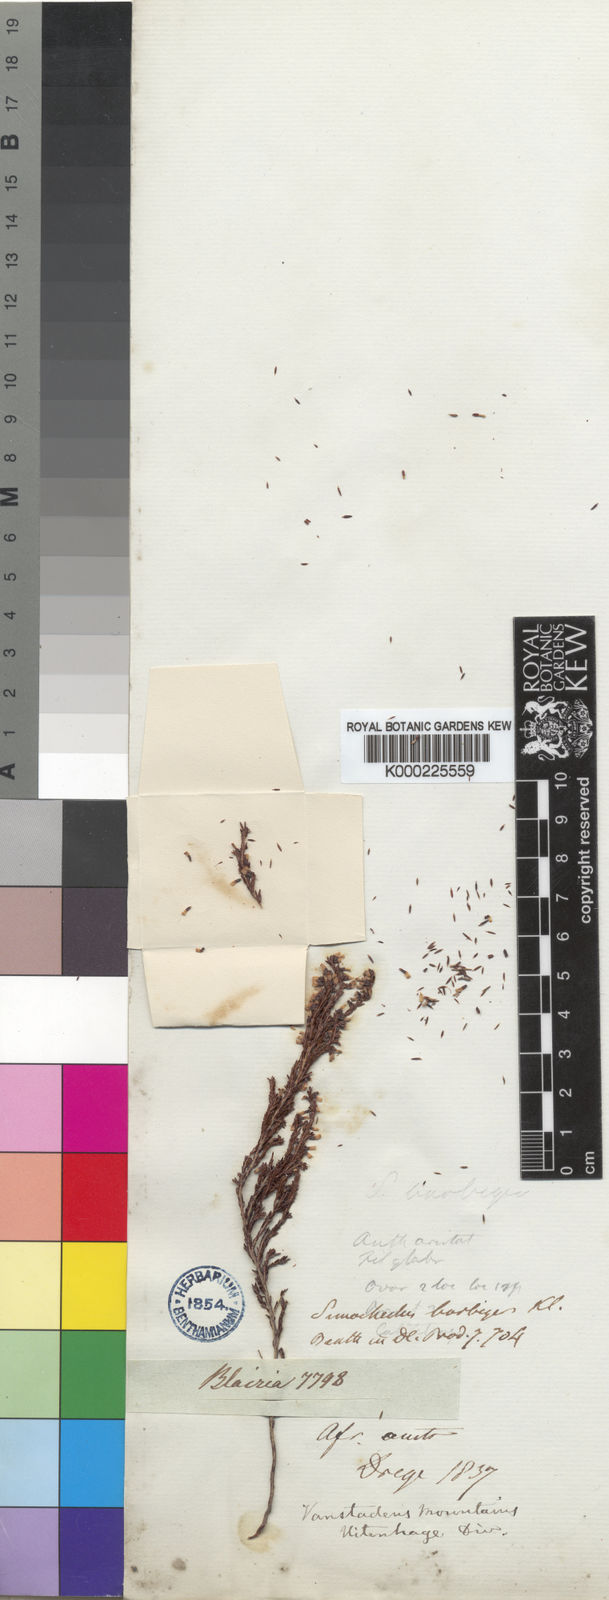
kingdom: Plantae
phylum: Tracheophyta
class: Magnoliopsida
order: Ericales
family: Ericaceae
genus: Erica
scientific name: Erica uberiflora
